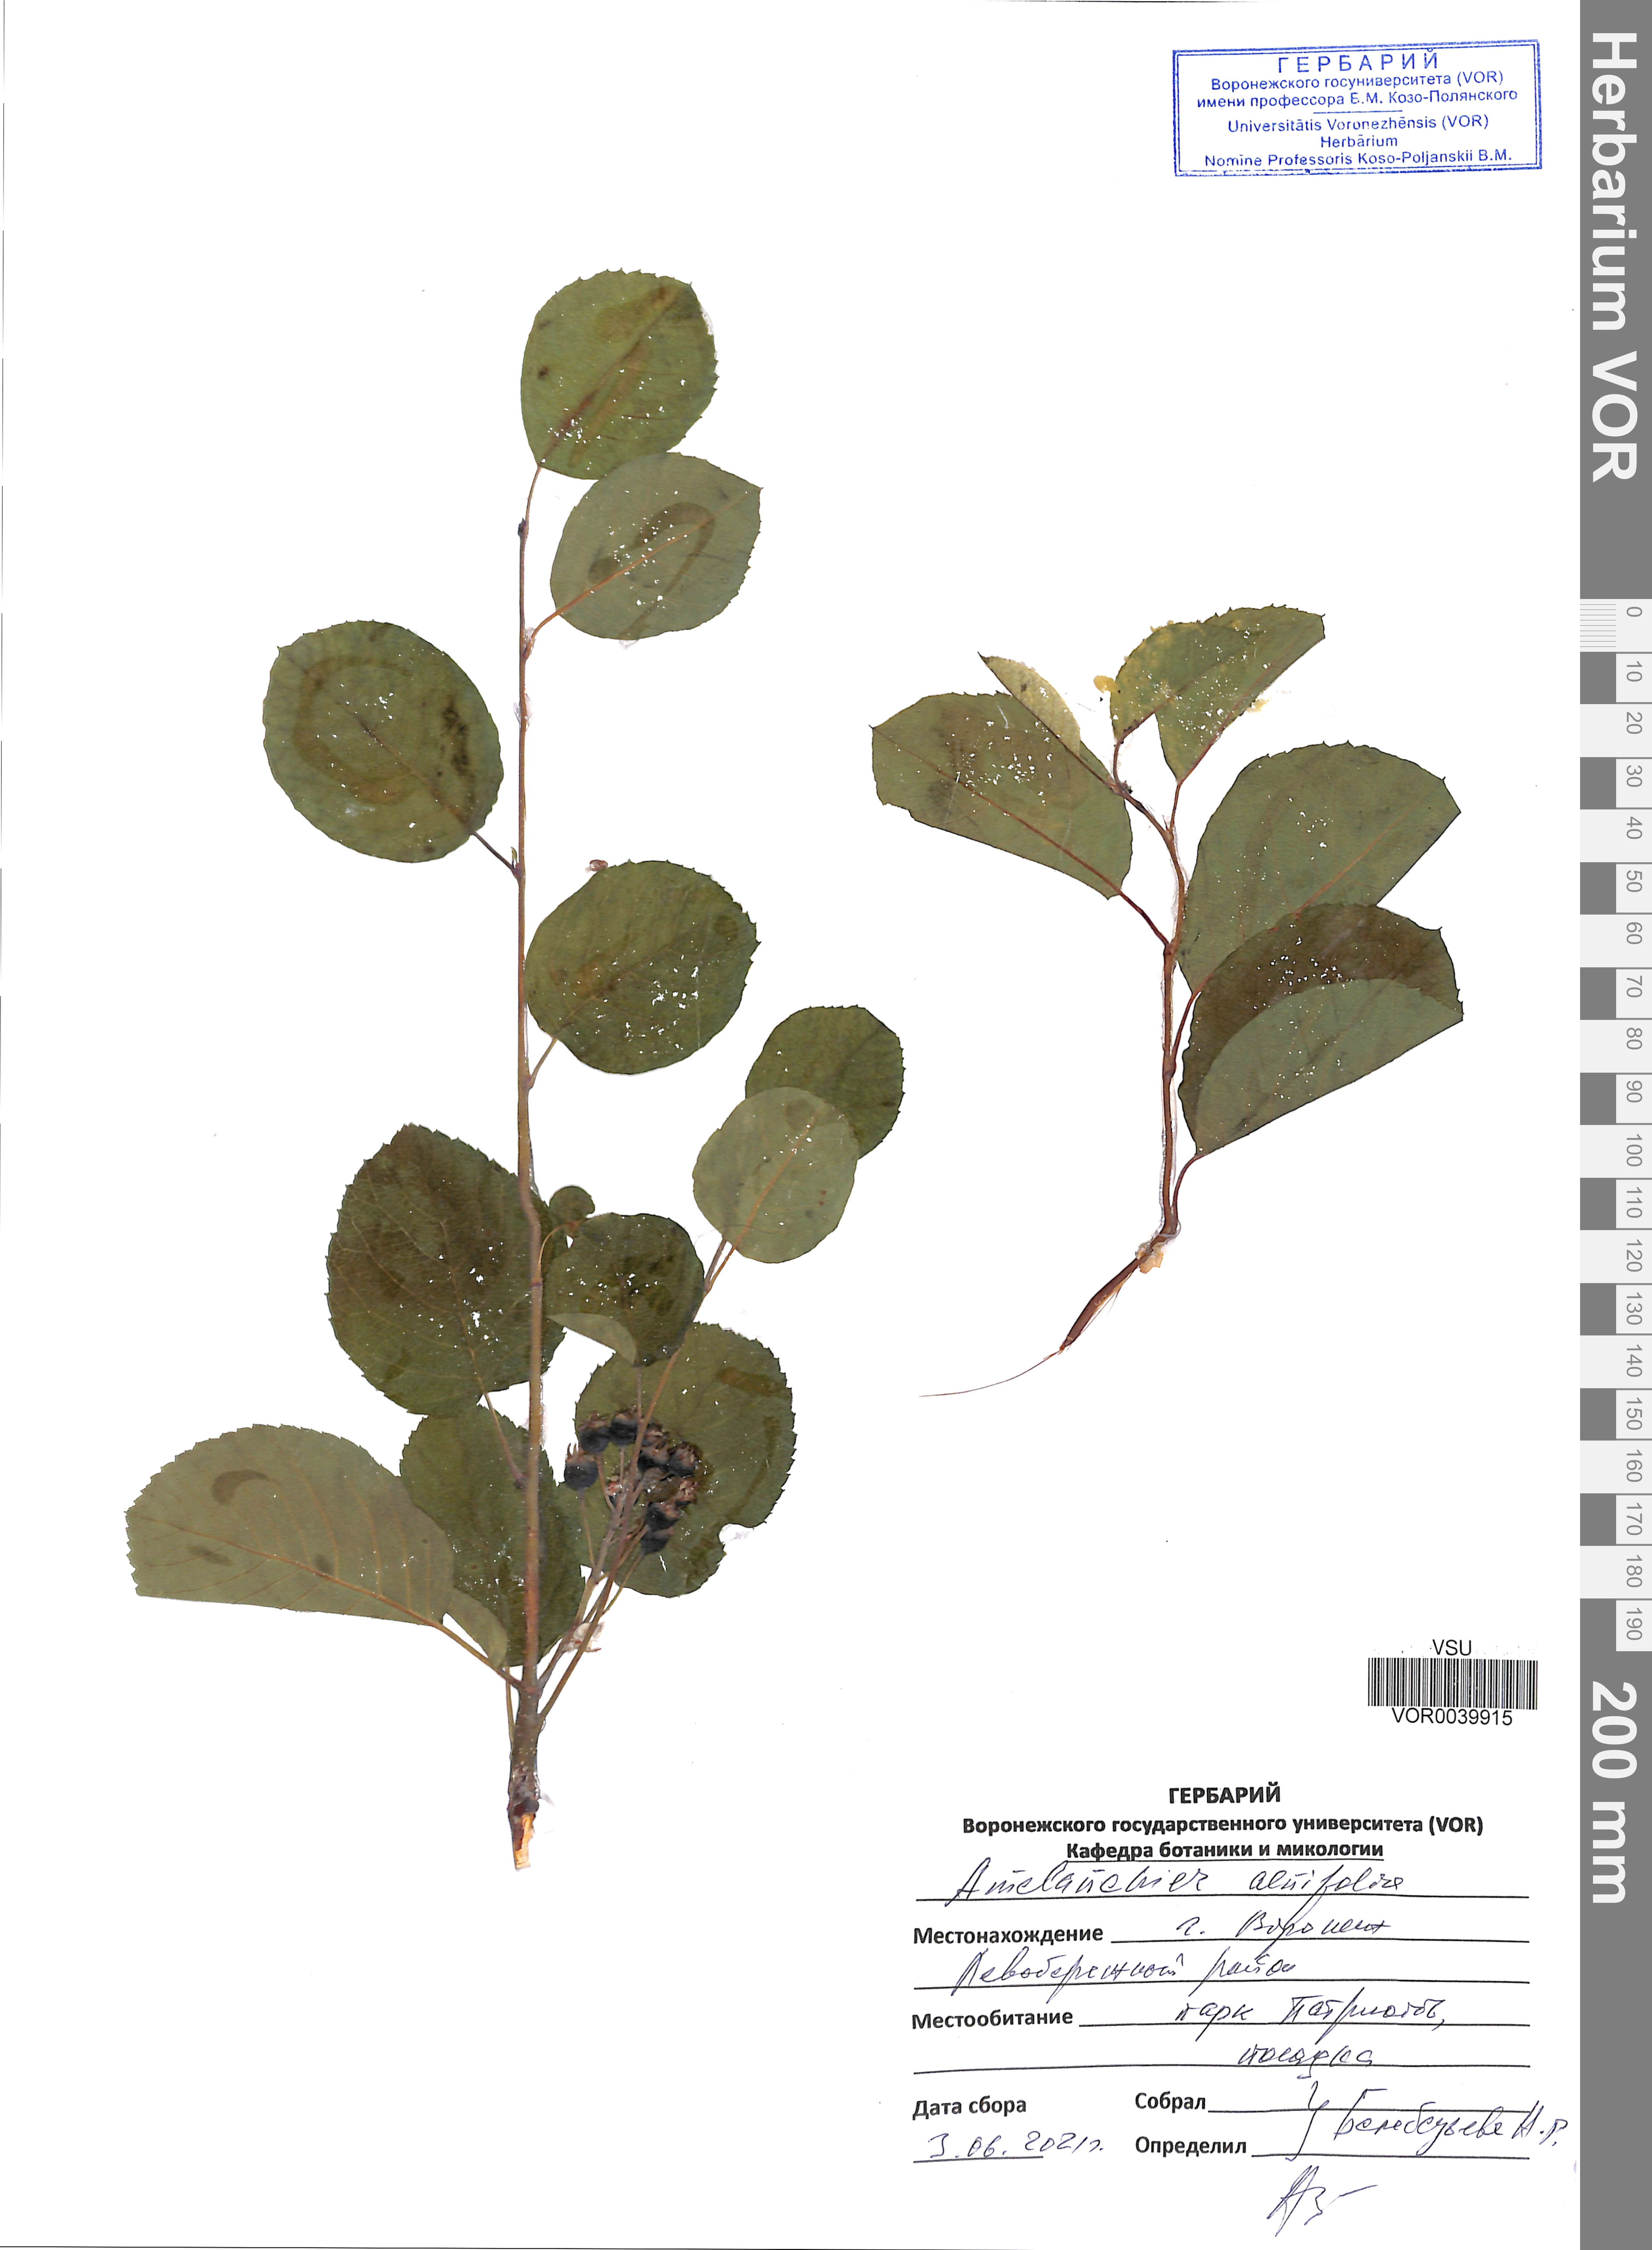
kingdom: Plantae
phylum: Tracheophyta
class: Magnoliopsida
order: Rosales
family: Rosaceae
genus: Amelanchier
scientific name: Amelanchier alnifolia
